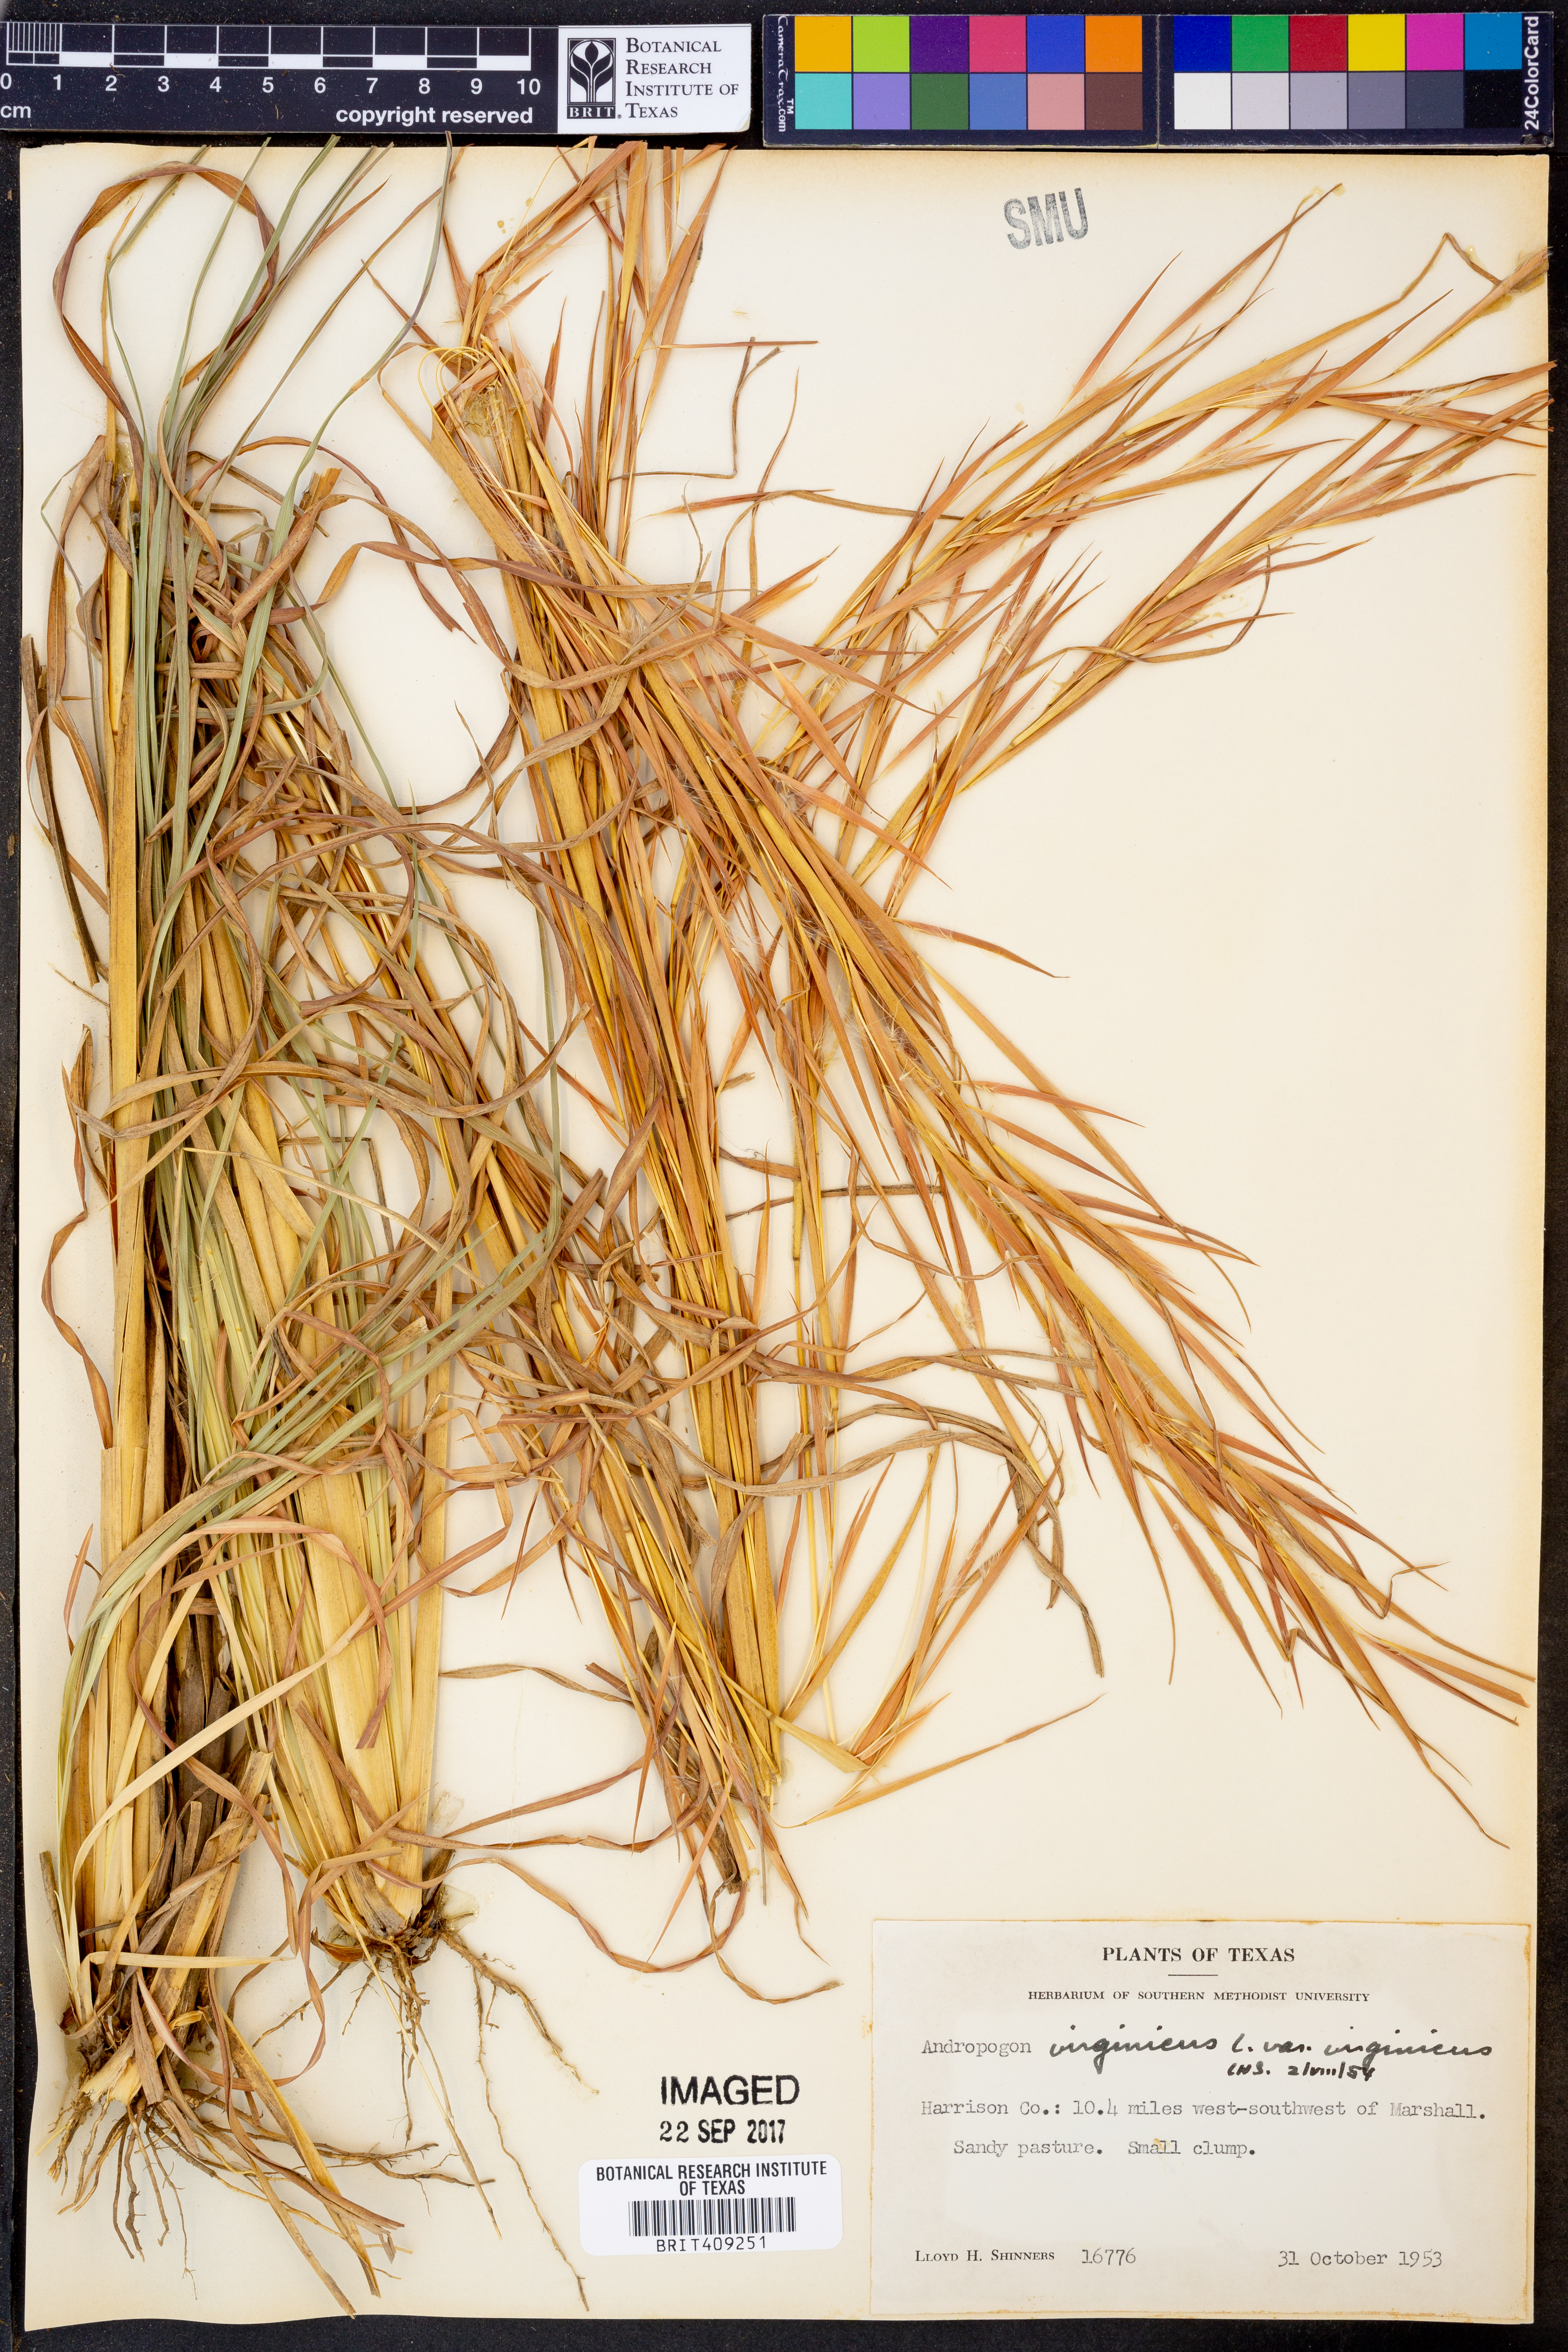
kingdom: Plantae
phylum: Tracheophyta
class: Liliopsida
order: Poales
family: Poaceae
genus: Andropogon
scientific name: Andropogon virginicus
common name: Broomsedge bluestem
